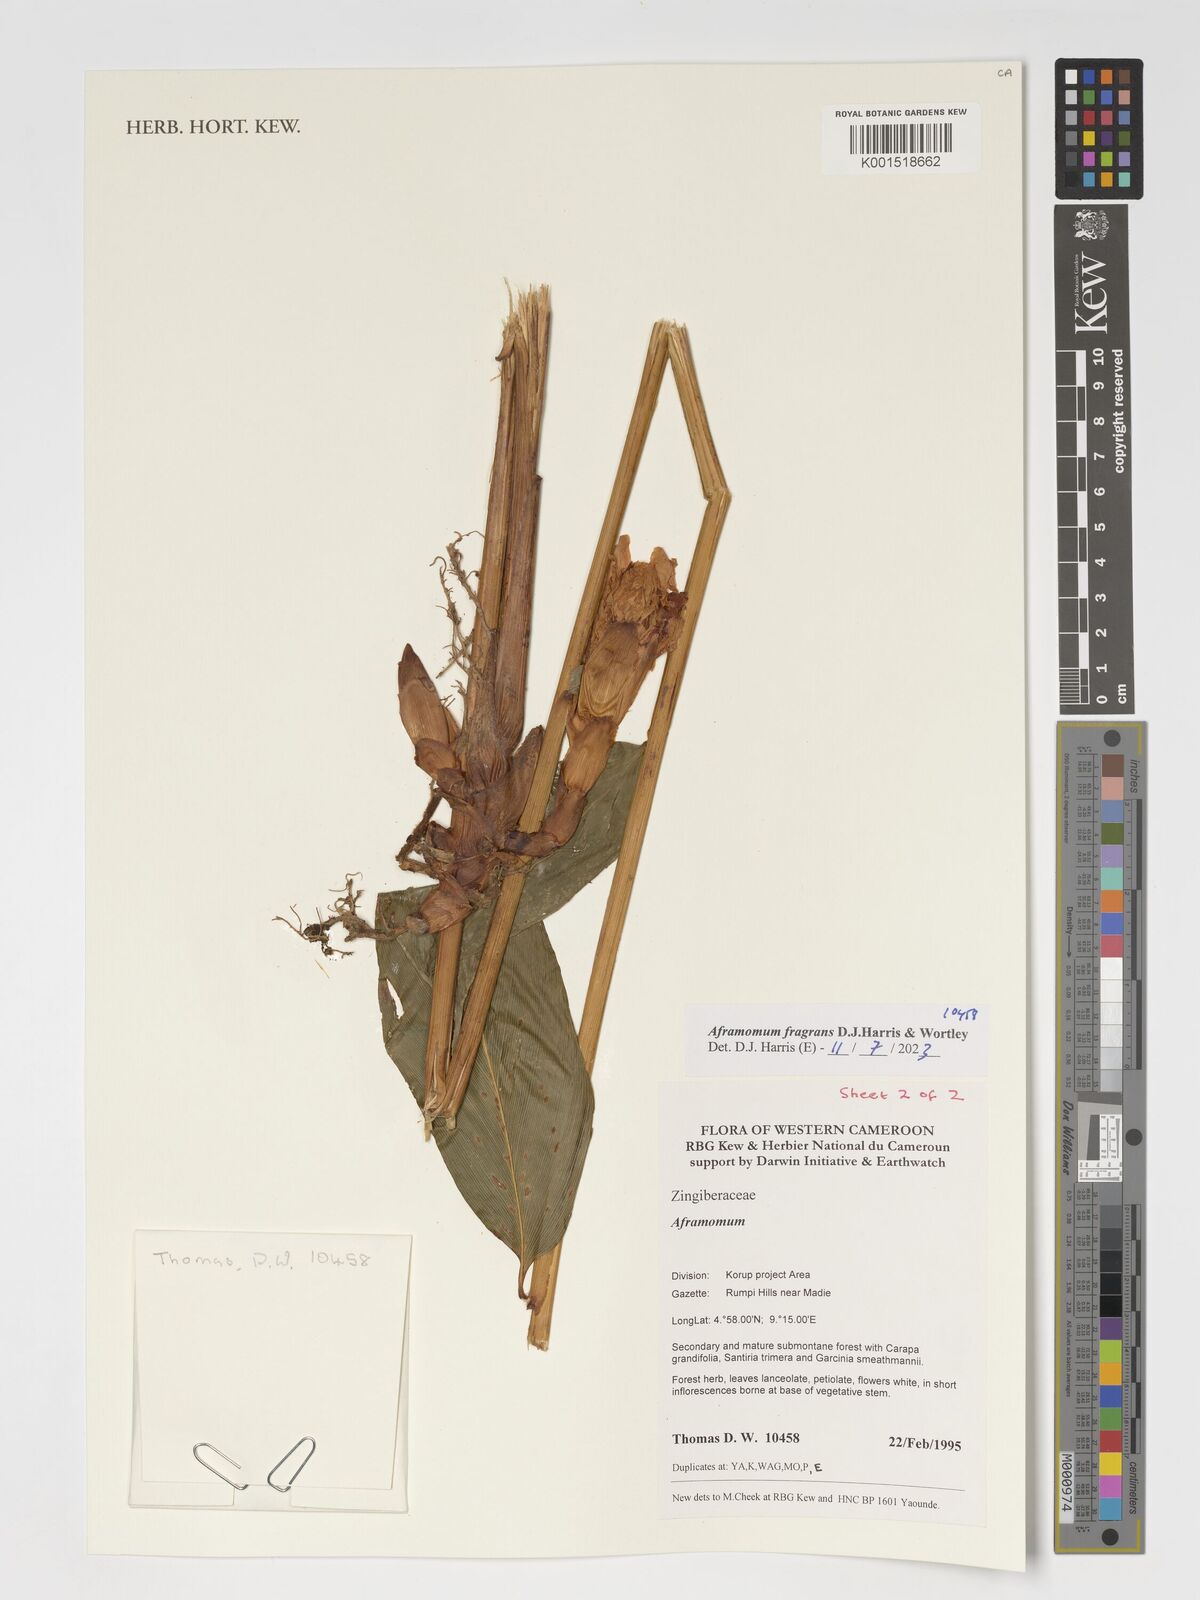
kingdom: Plantae
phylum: Tracheophyta
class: Liliopsida
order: Zingiberales
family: Zingiberaceae
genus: Aframomum
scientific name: Aframomum fragrans
